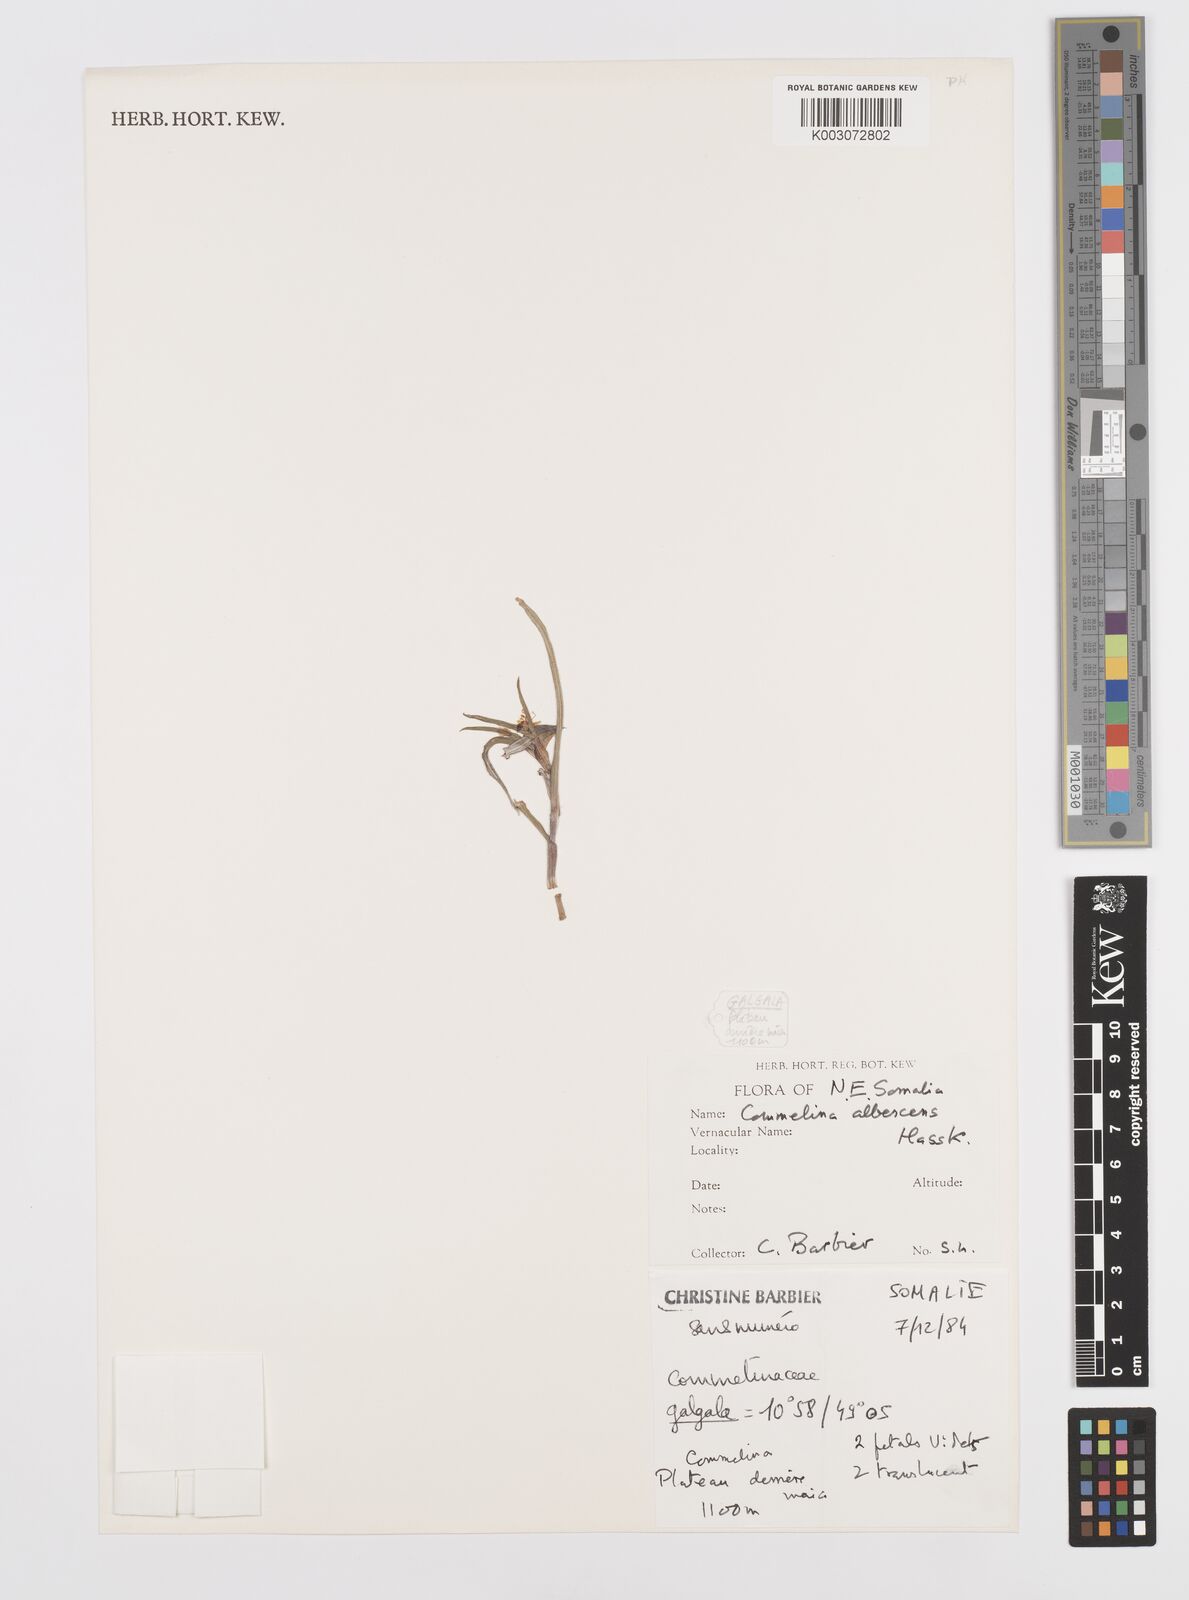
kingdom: Plantae
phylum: Tracheophyta
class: Liliopsida
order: Commelinales
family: Commelinaceae
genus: Commelina
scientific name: Commelina albescens
